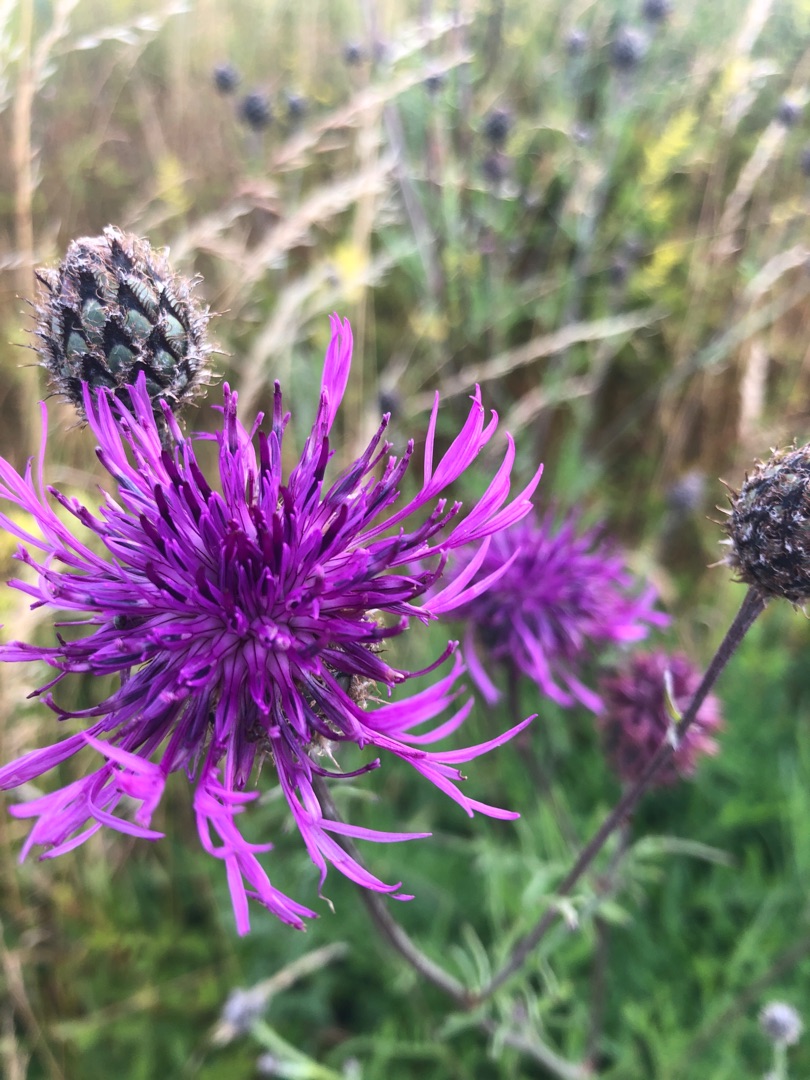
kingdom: Plantae
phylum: Tracheophyta
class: Magnoliopsida
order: Asterales
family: Asteraceae
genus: Centaurea
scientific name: Centaurea scabiosa
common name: Stor knopurt
